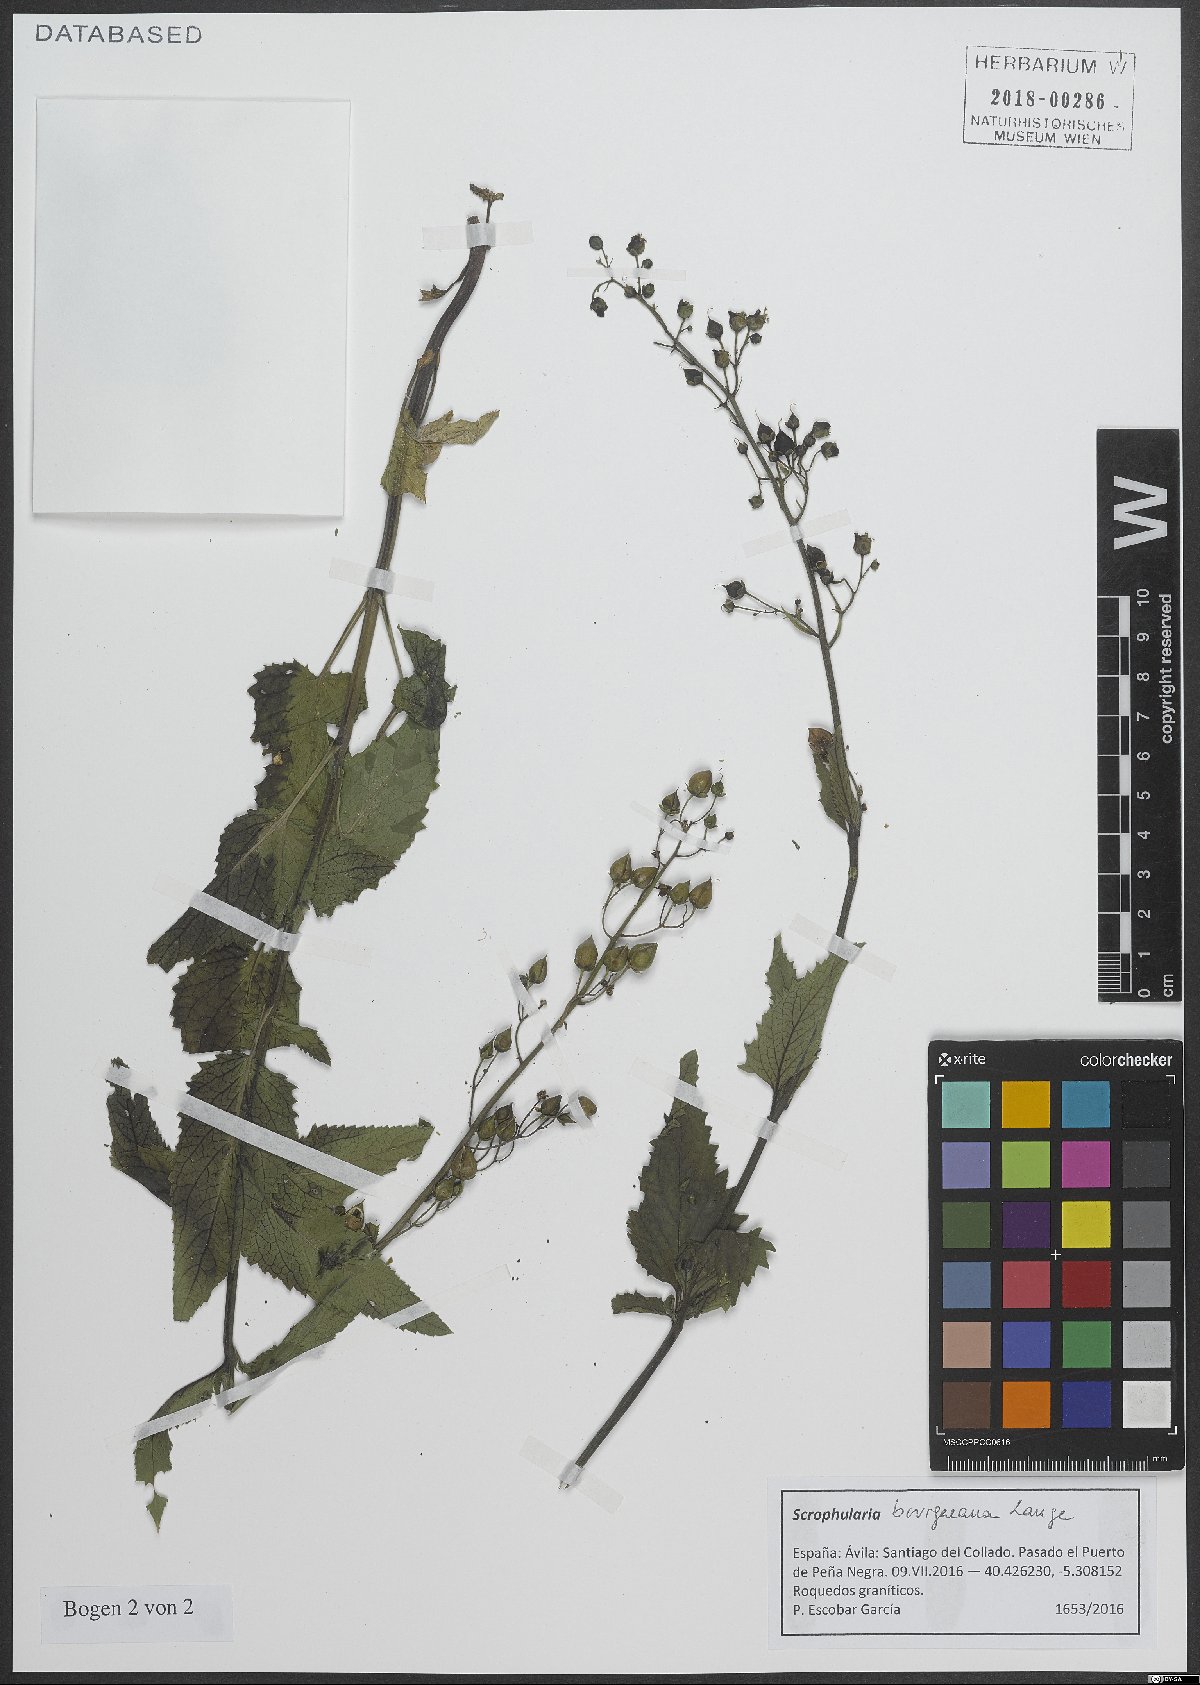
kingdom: Plantae
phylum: Tracheophyta
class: Magnoliopsida
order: Lamiales
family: Scrophulariaceae
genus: Scrophularia
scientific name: Scrophularia bourgaeana
